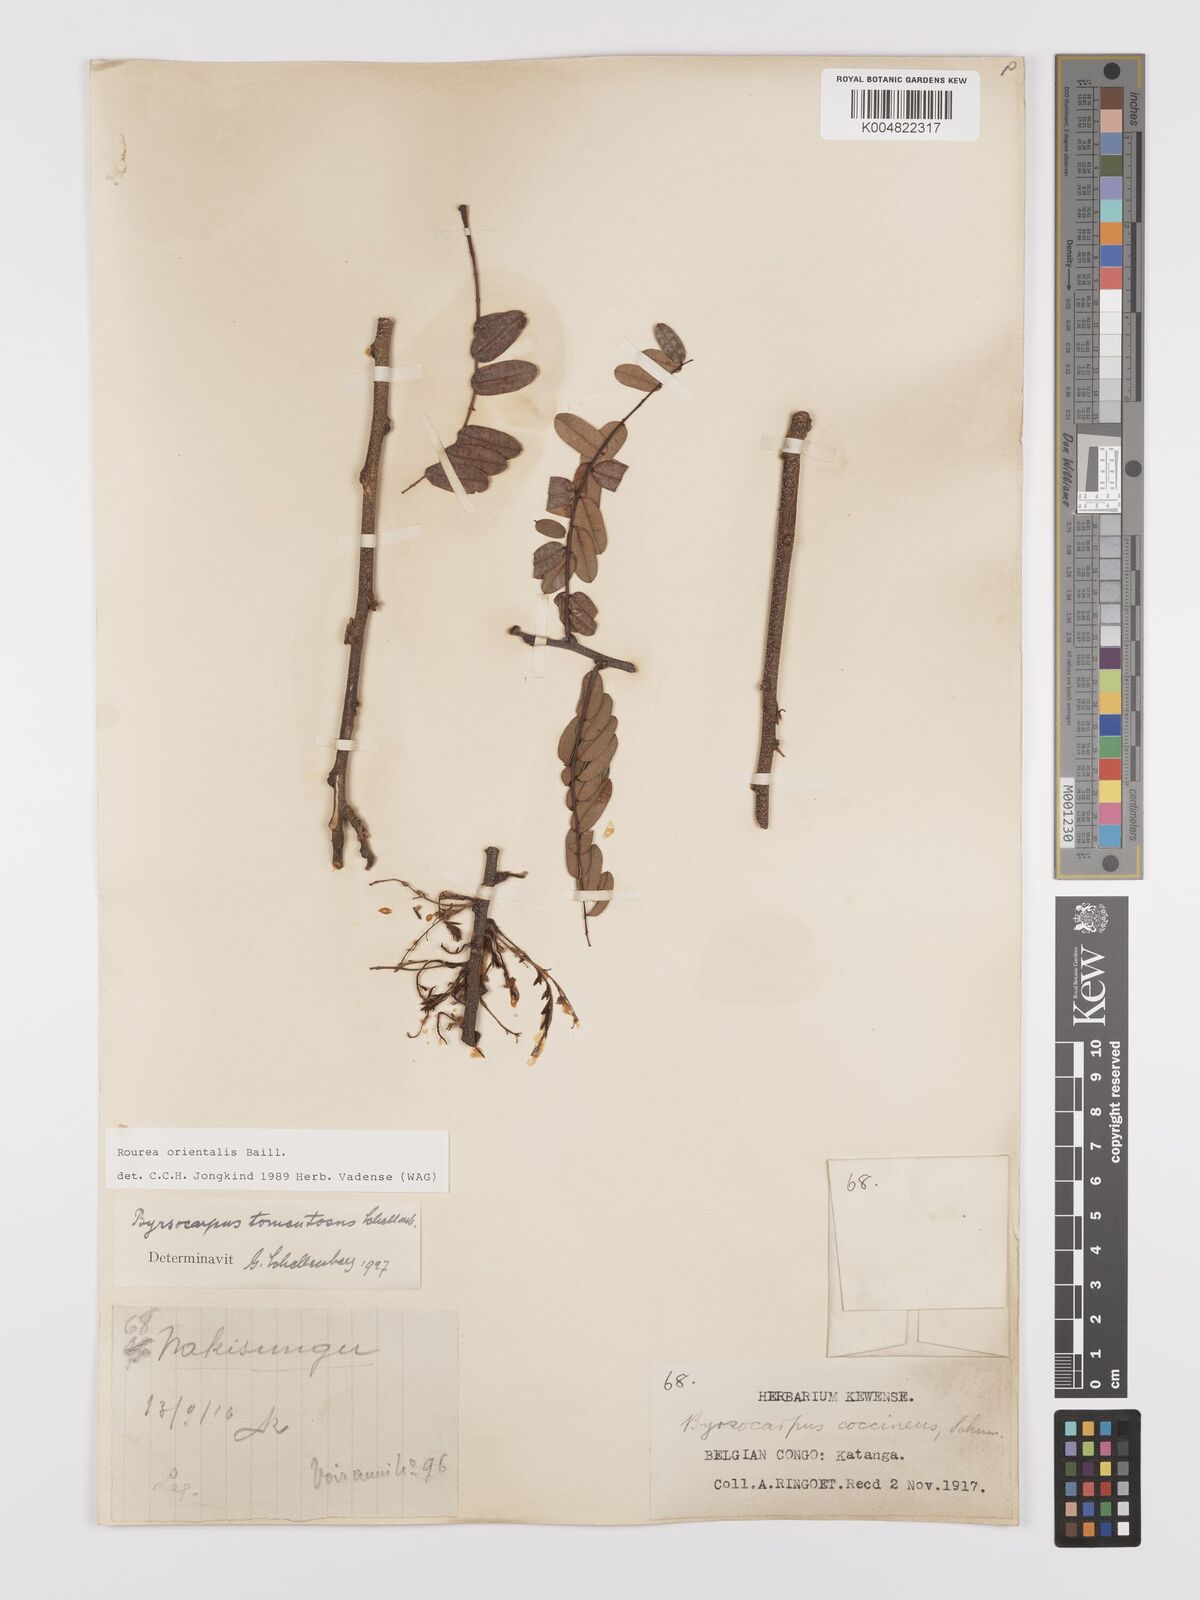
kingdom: Plantae
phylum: Tracheophyta
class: Magnoliopsida
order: Oxalidales
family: Connaraceae
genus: Rourea
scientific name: Rourea orientalis
